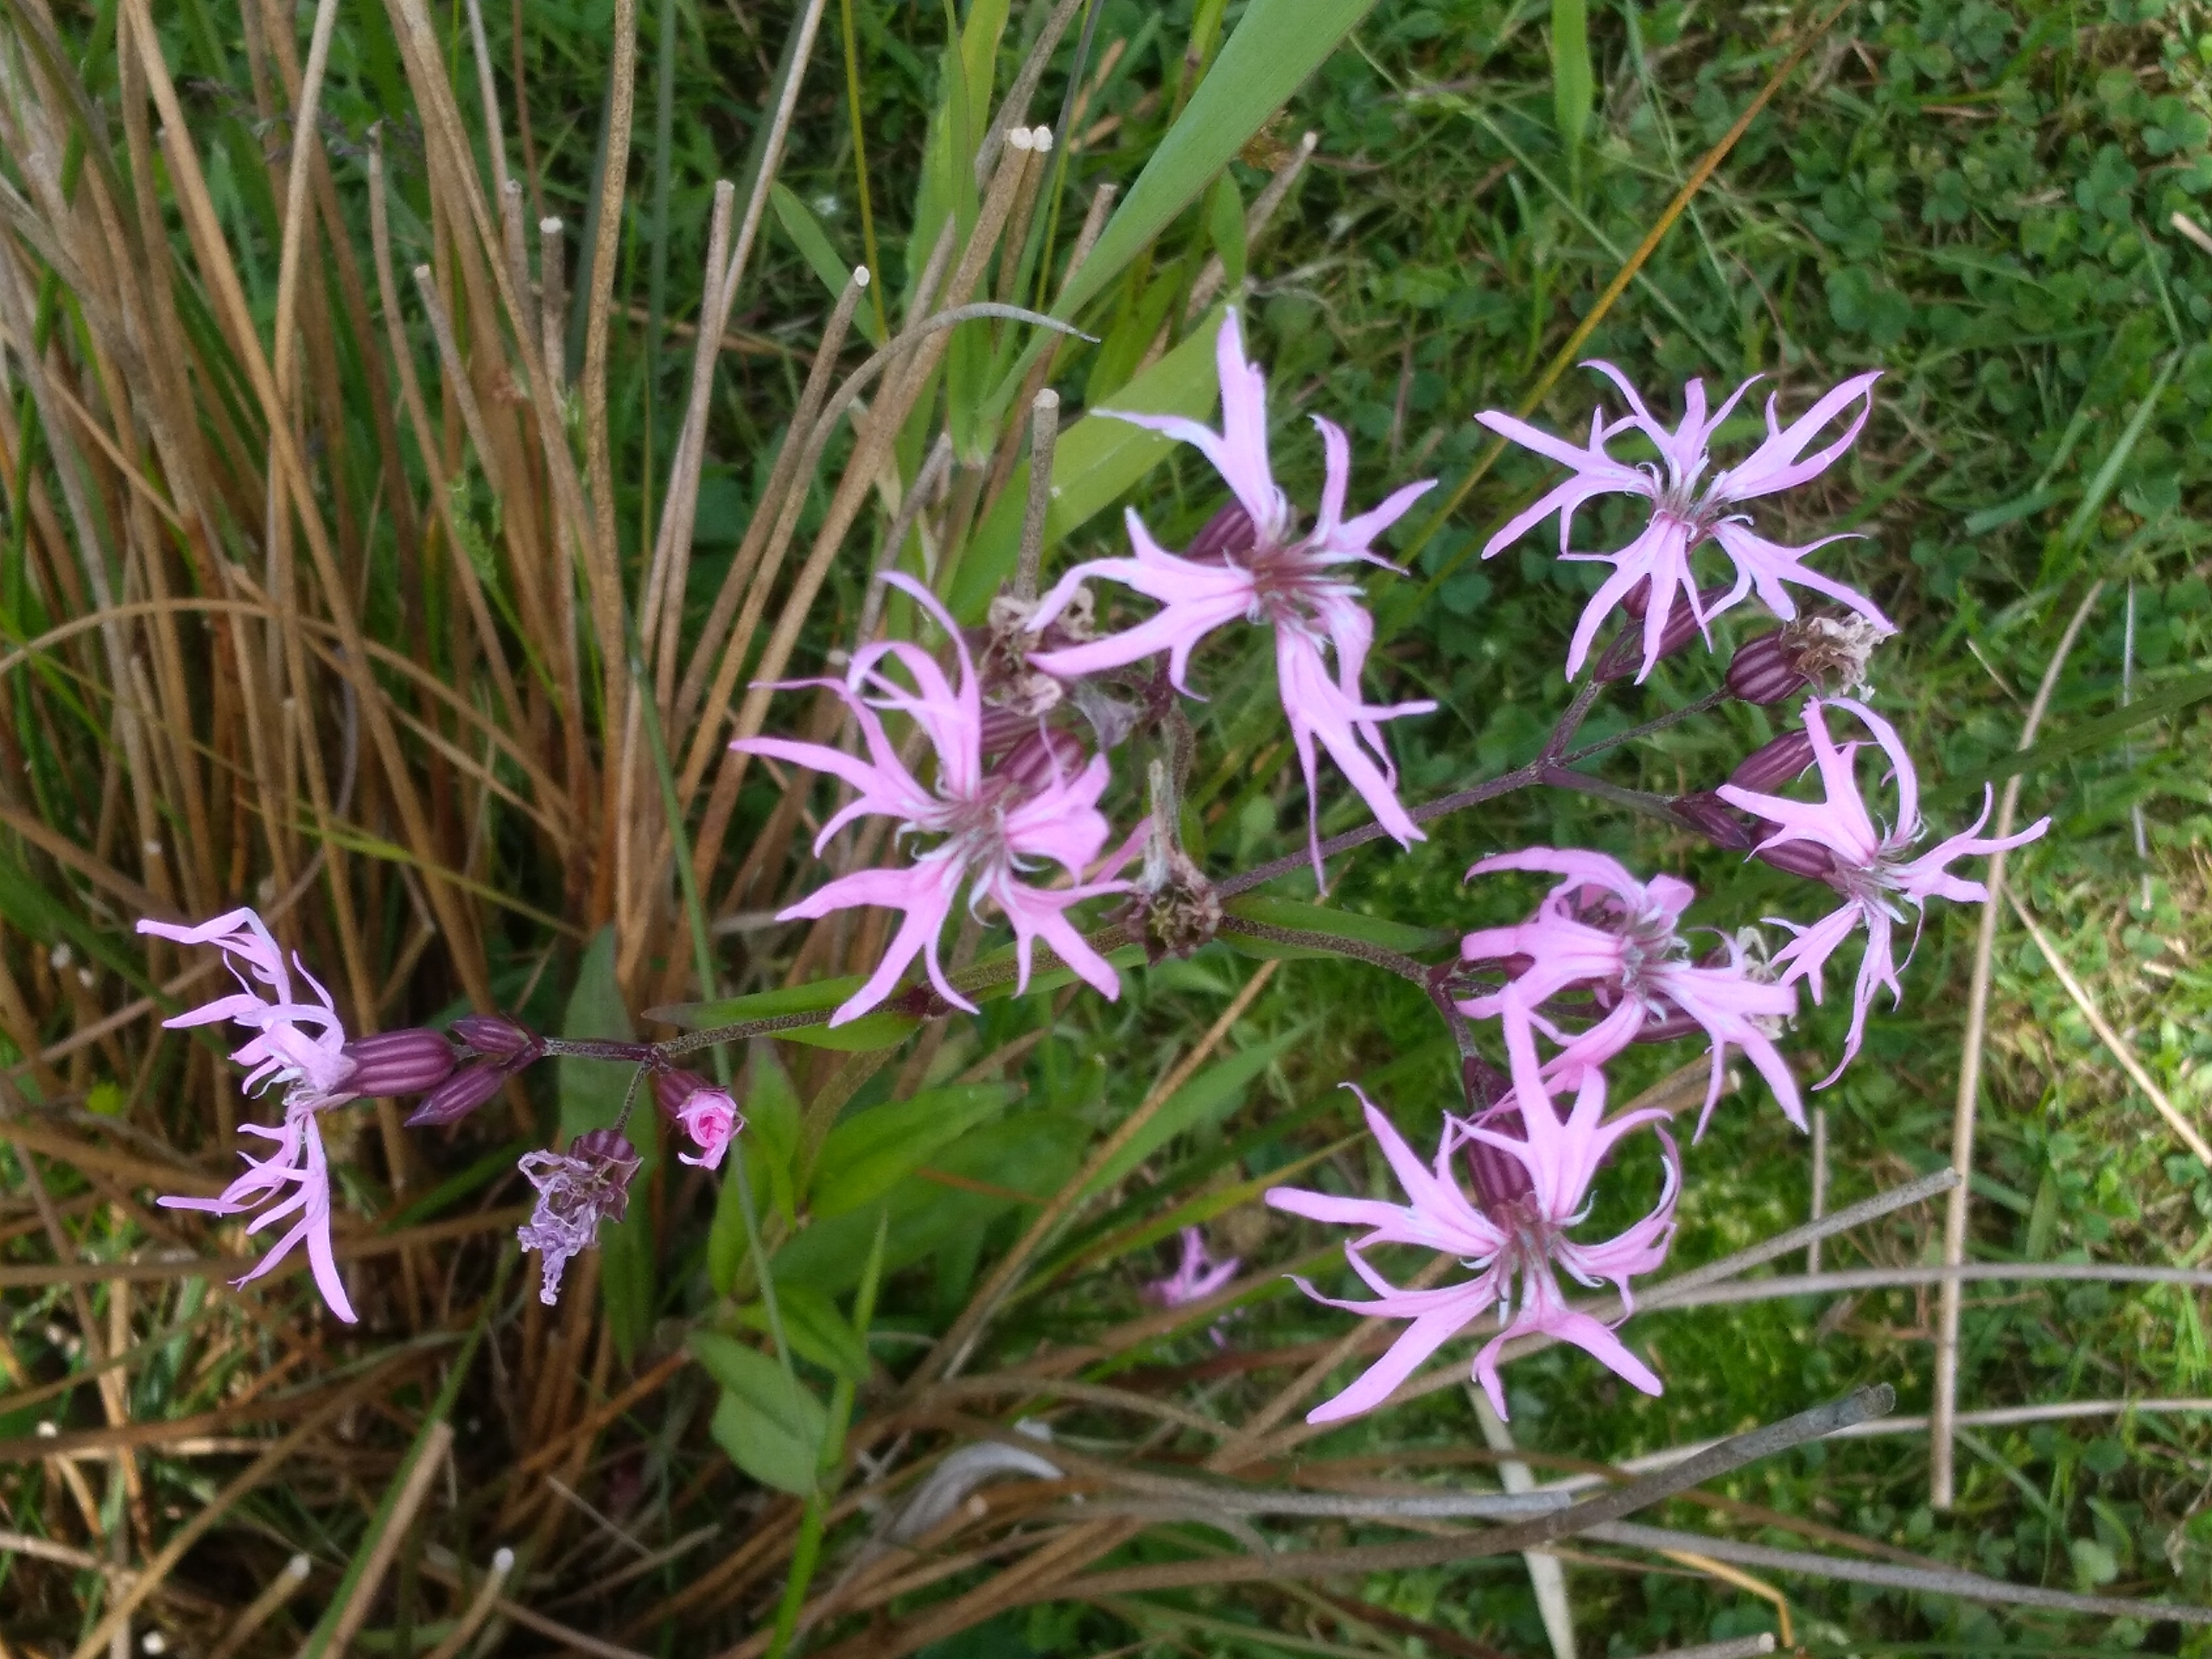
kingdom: Plantae
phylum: Tracheophyta
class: Magnoliopsida
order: Caryophyllales
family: Caryophyllaceae
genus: Silene
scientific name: Silene flos-cuculi
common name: Trævlekrone
